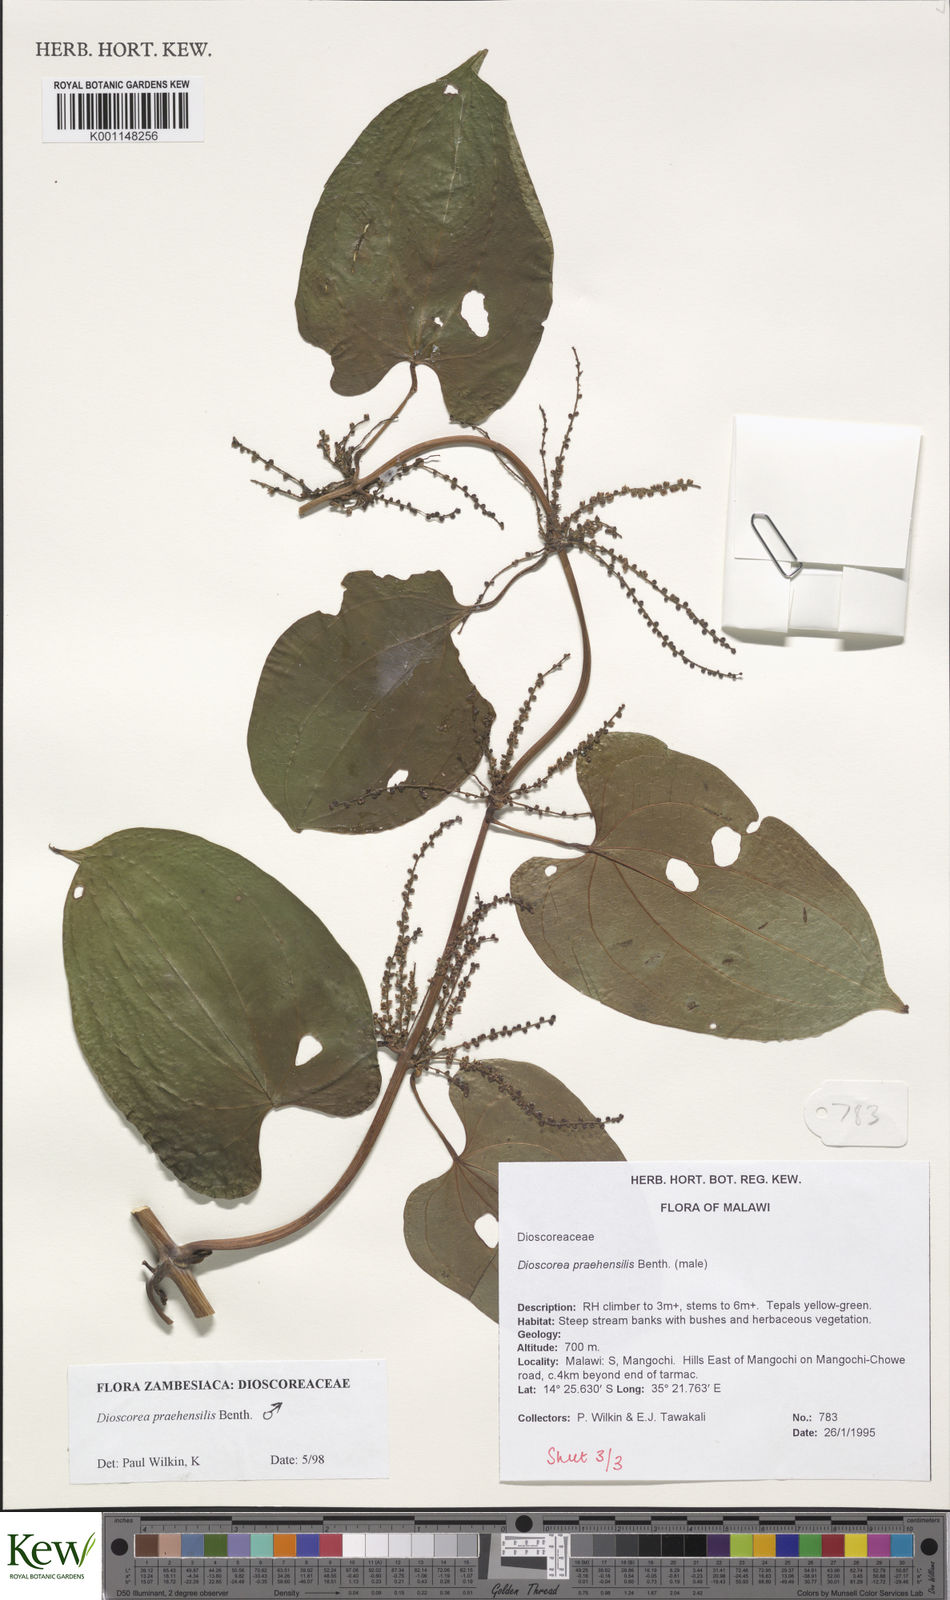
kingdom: Plantae
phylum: Tracheophyta
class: Liliopsida
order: Dioscoreales
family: Dioscoreaceae
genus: Dioscorea
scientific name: Dioscorea praehensilis
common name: Bush yam
